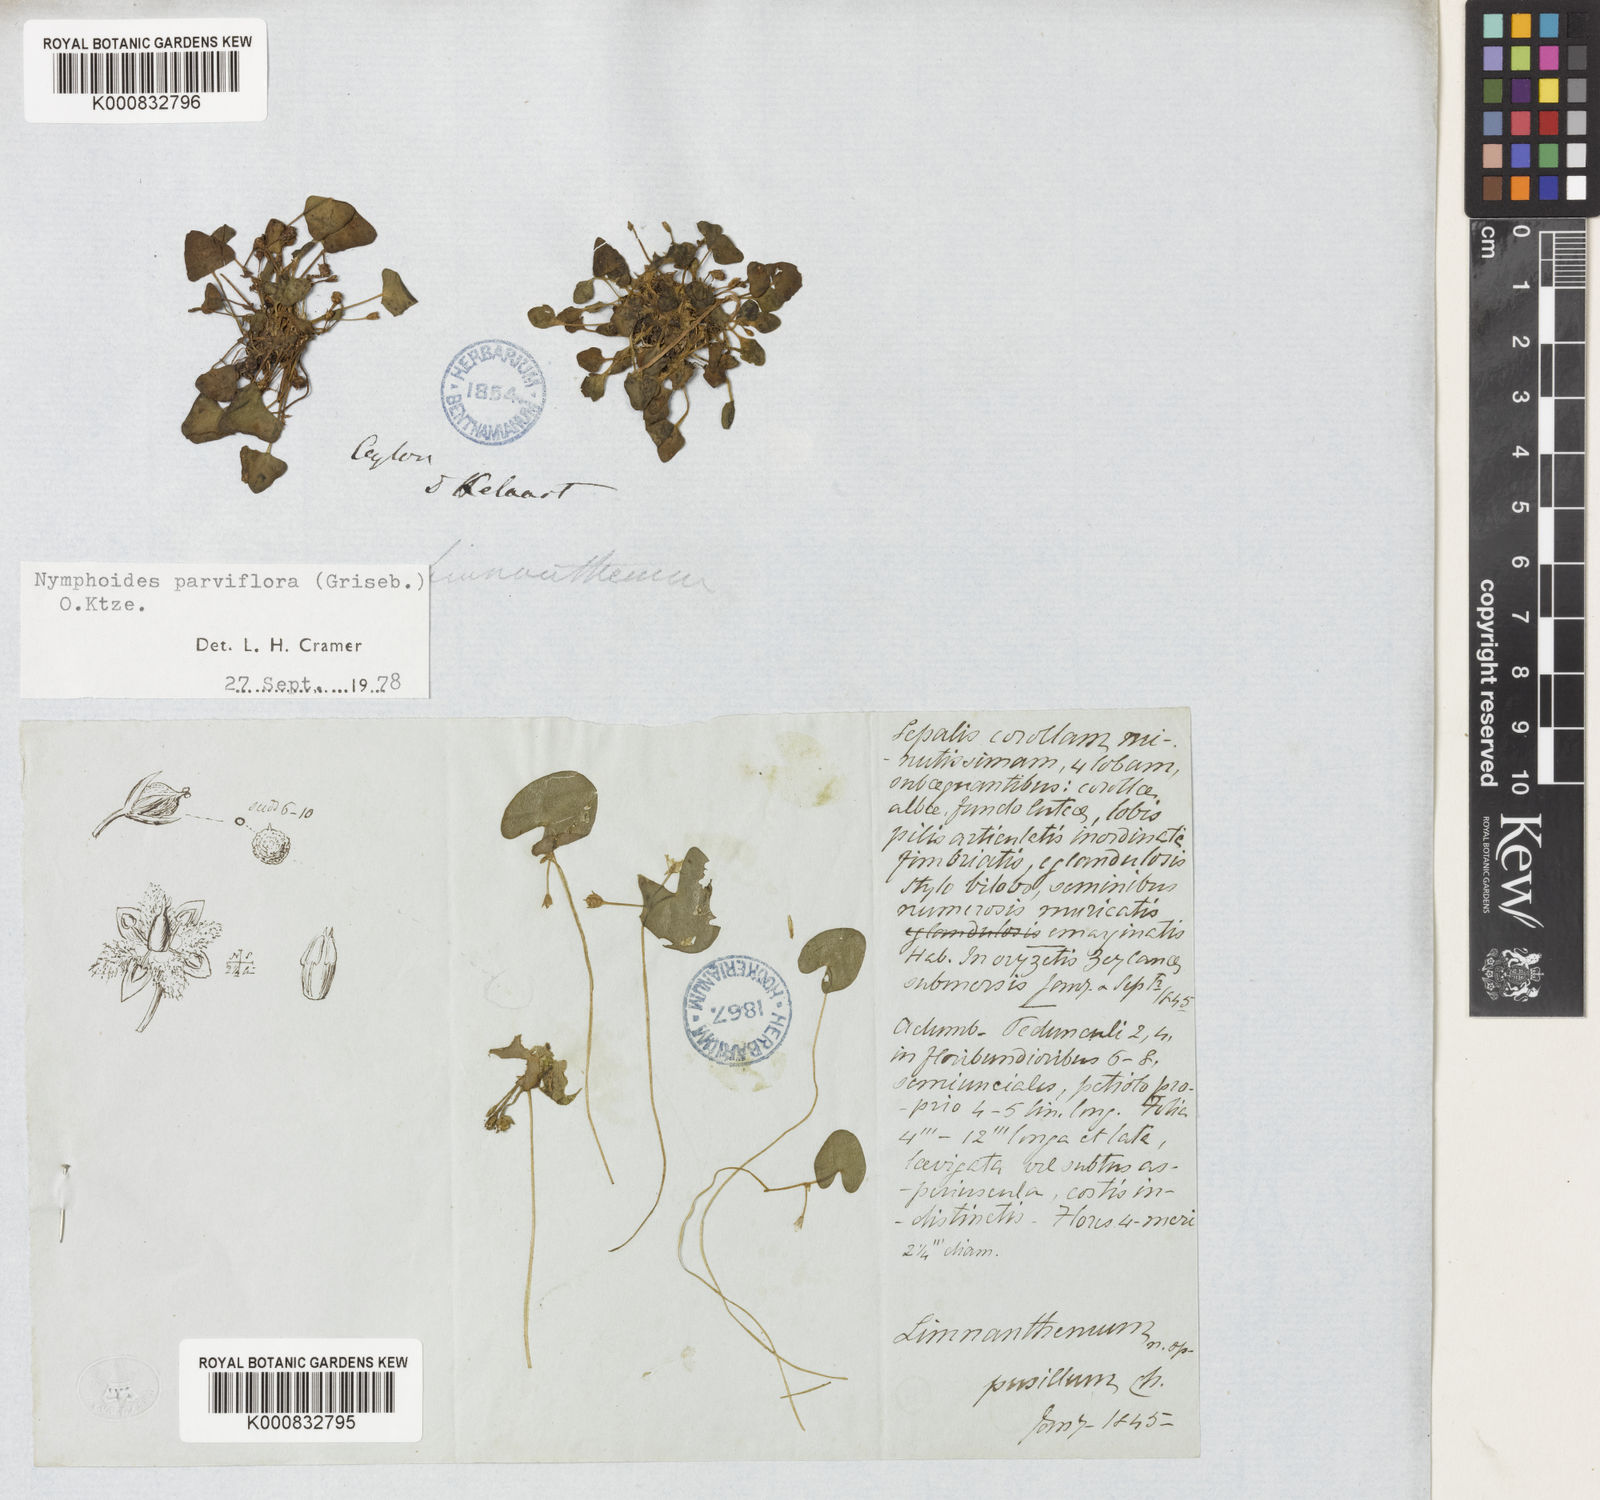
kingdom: Plantae
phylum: Tracheophyta
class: Magnoliopsida
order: Asterales
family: Menyanthaceae
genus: Nymphoides
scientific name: Nymphoides parvifolia
